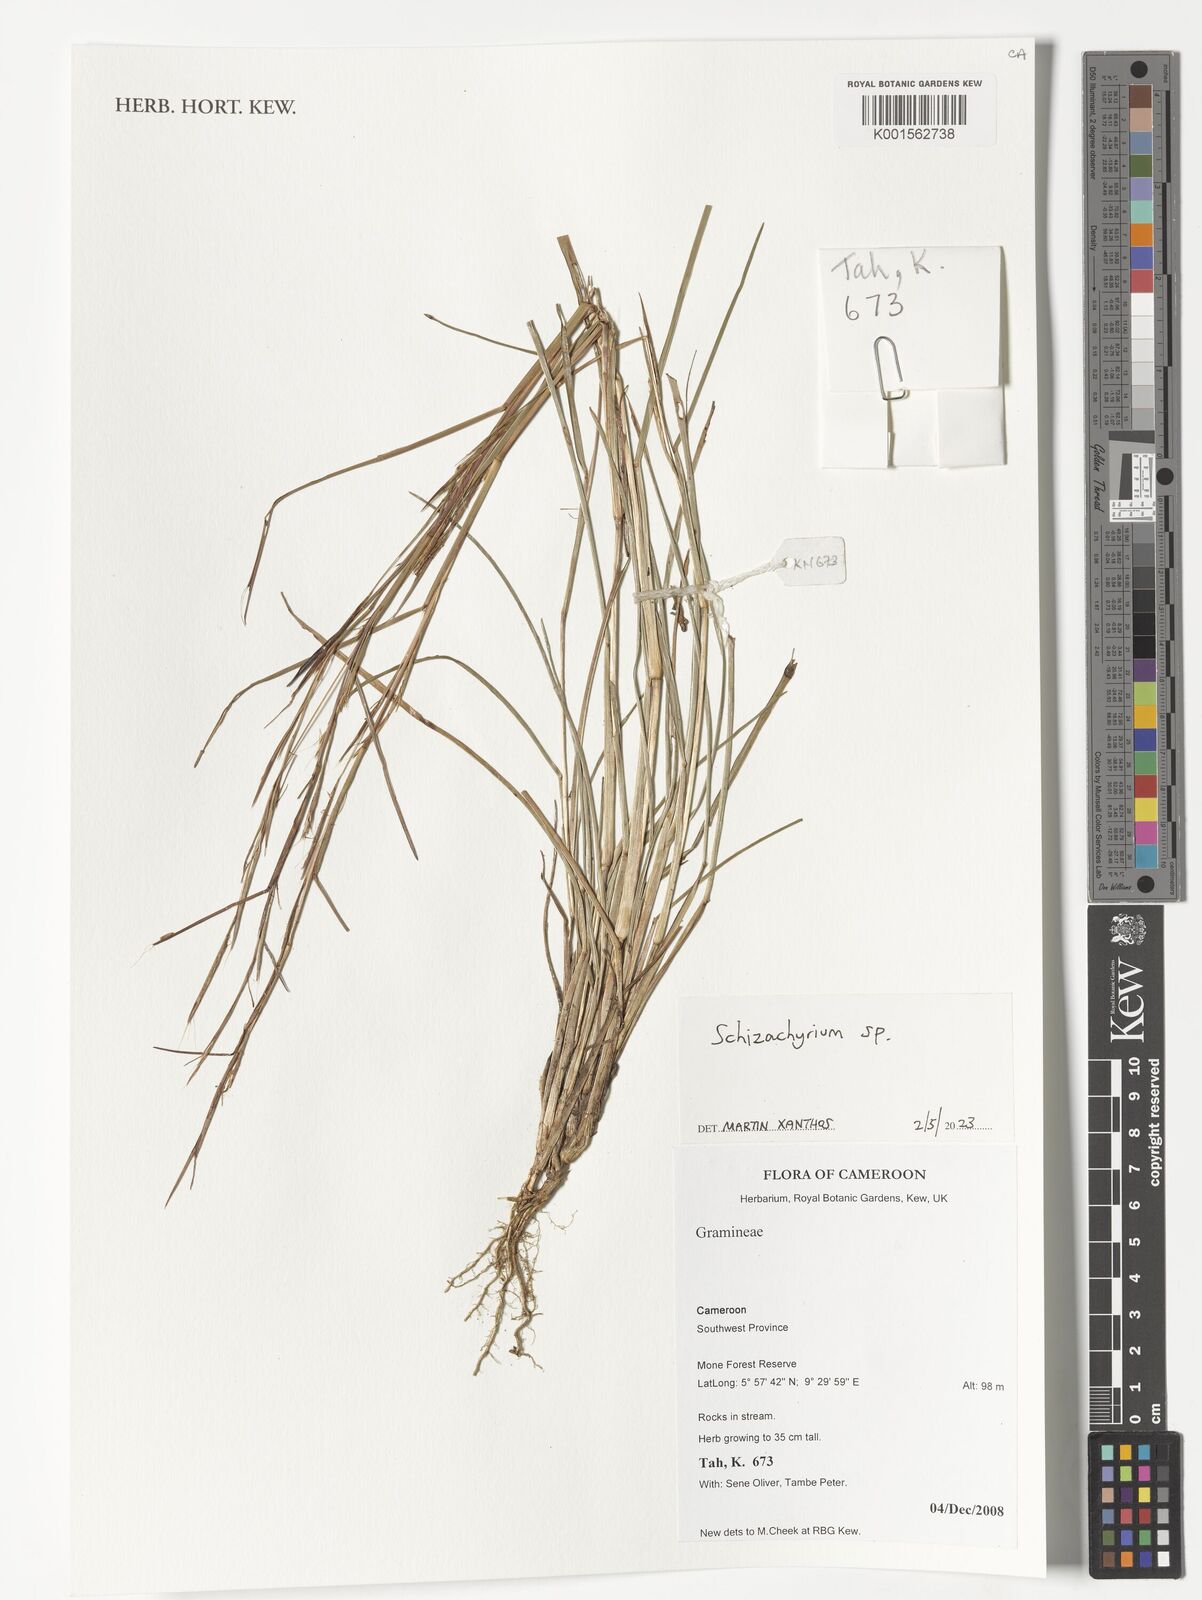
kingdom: Plantae
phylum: Tracheophyta
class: Liliopsida
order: Poales
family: Poaceae
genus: Schizachyrium
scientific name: Schizachyrium
